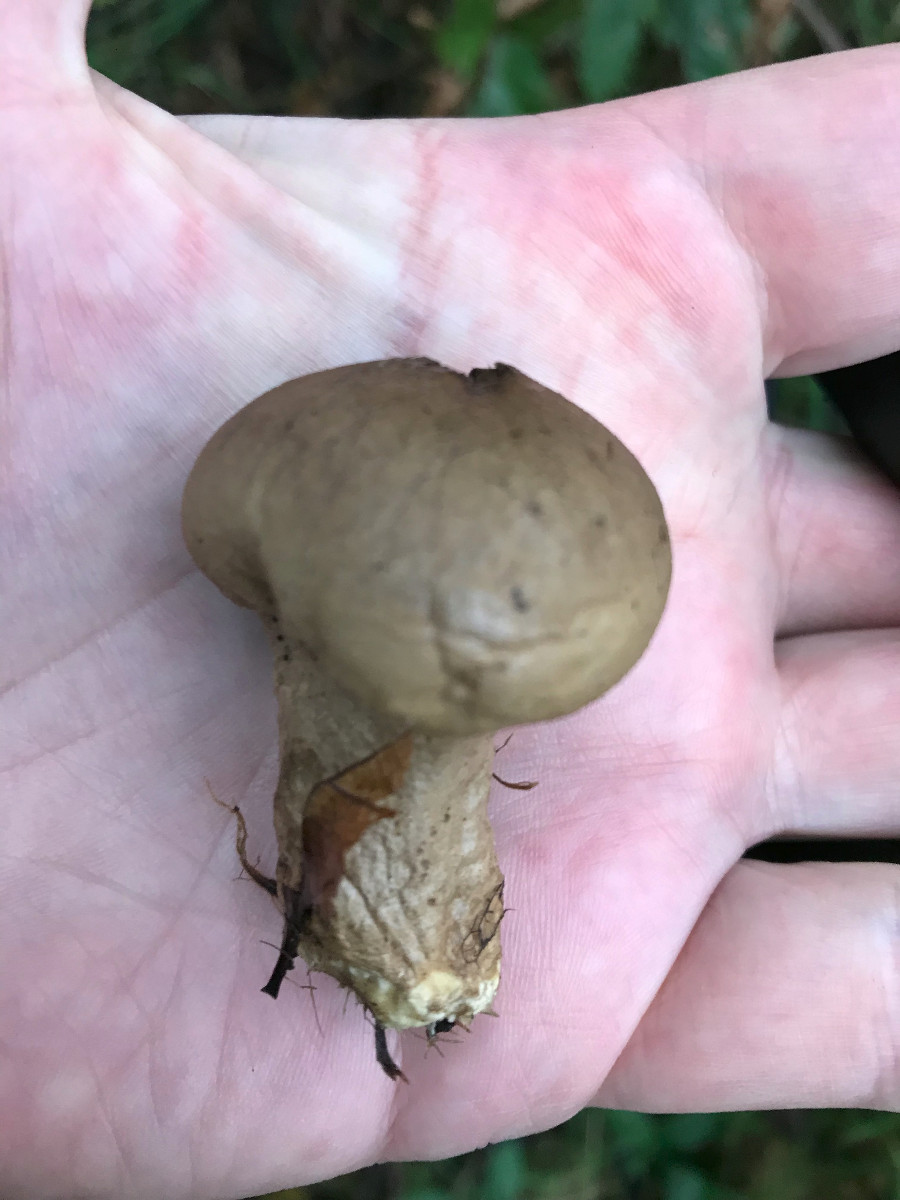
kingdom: Fungi
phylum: Basidiomycota
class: Agaricomycetes
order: Agaricales
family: Lycoperdaceae
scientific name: Lycoperdaceae
